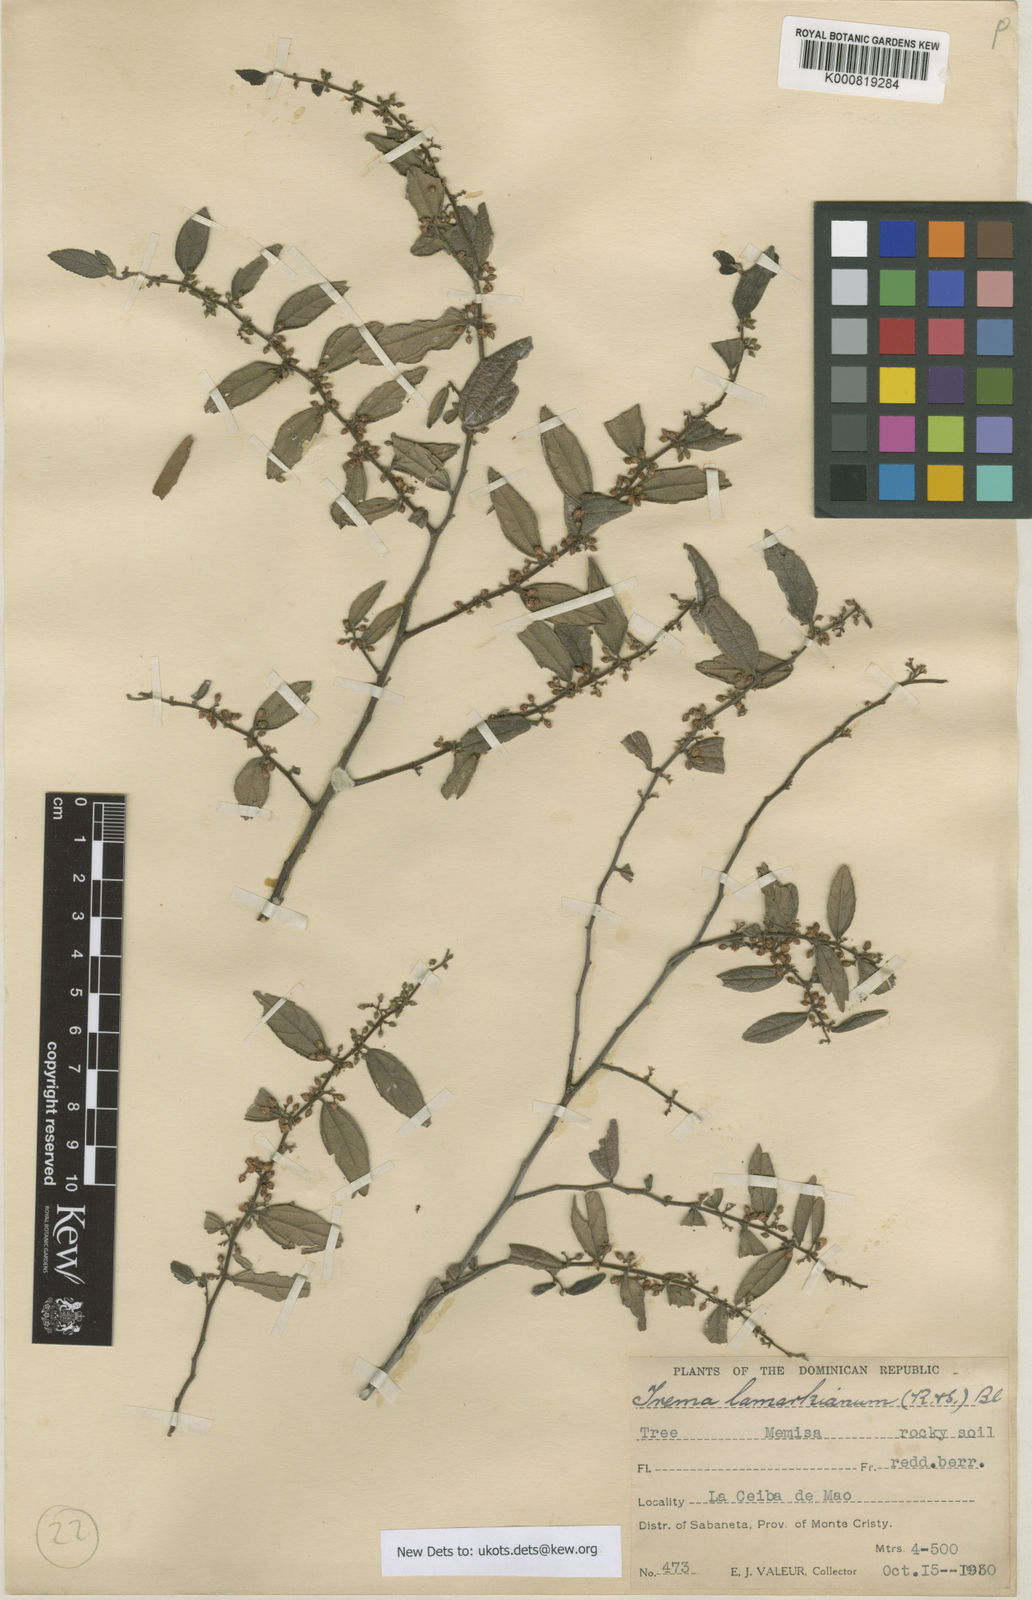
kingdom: Plantae
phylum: Tracheophyta
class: Magnoliopsida
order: Rosales
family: Cannabaceae
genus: Trema
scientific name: Trema lamarckianum
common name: Lamarck's trema
